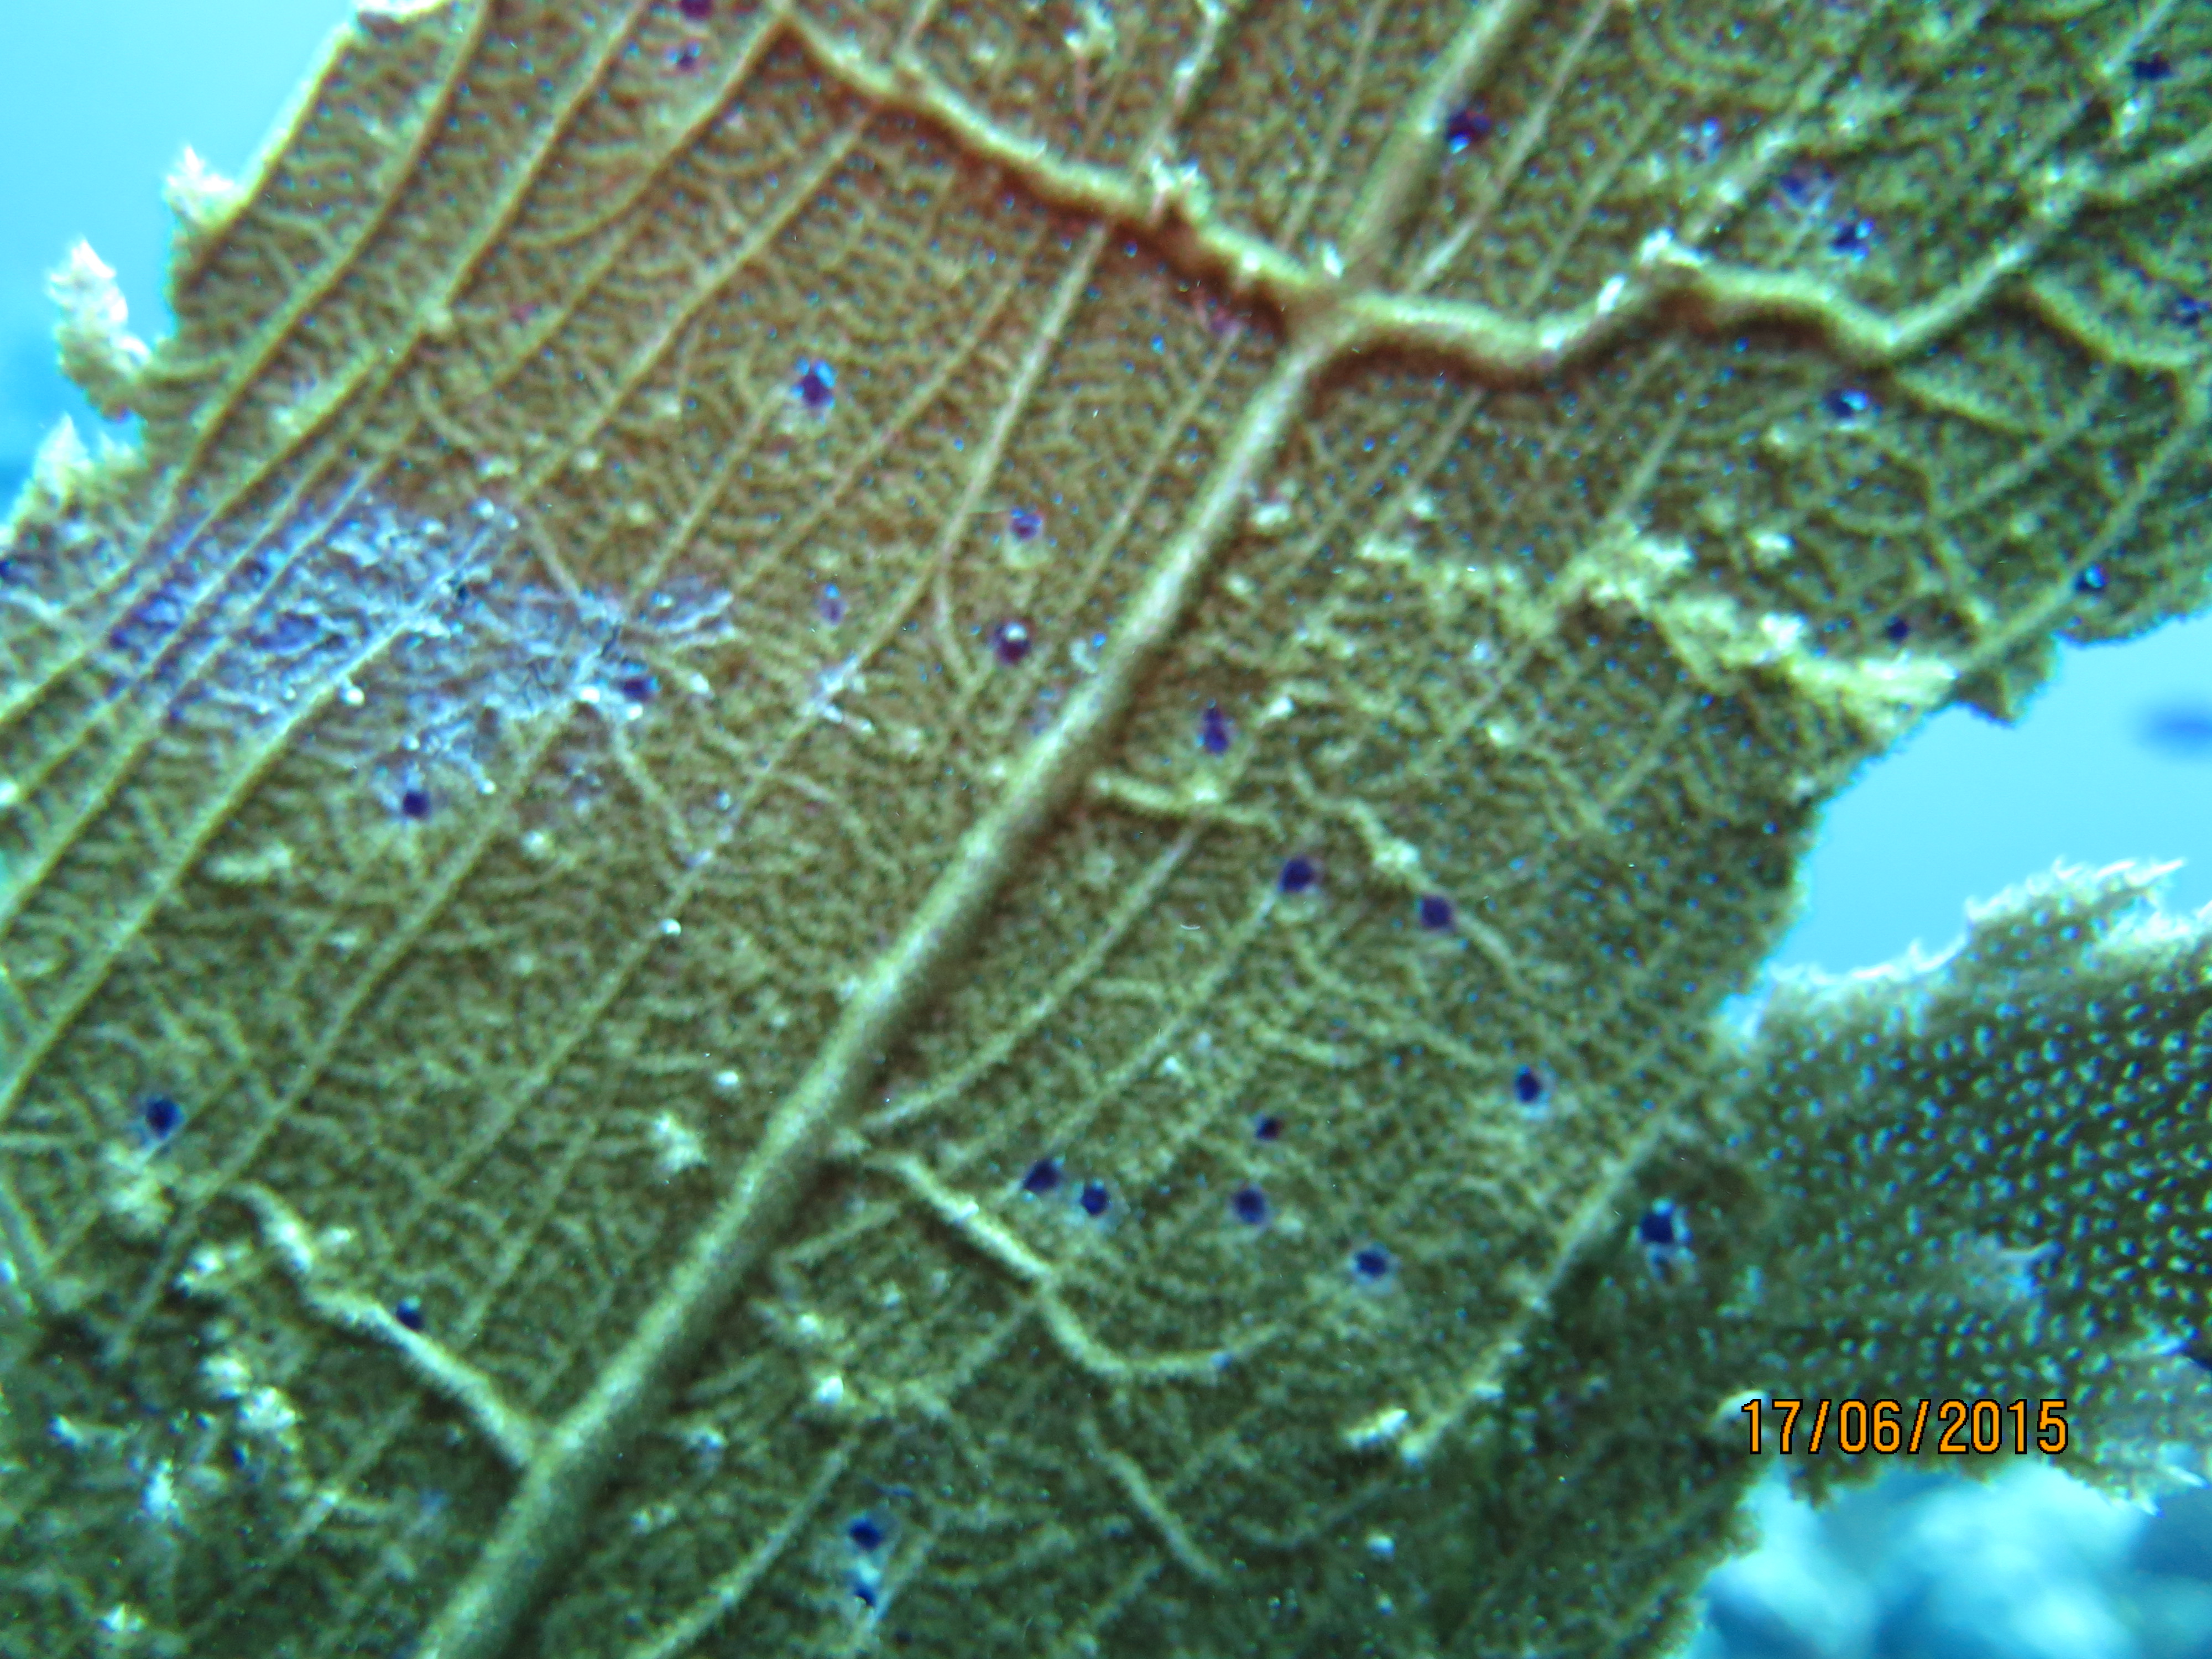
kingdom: Animalia
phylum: Cnidaria
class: Anthozoa
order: Malacalcyonacea
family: Gorgoniidae
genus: Gorgonia
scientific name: Gorgonia ventalina
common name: Common sea fan
